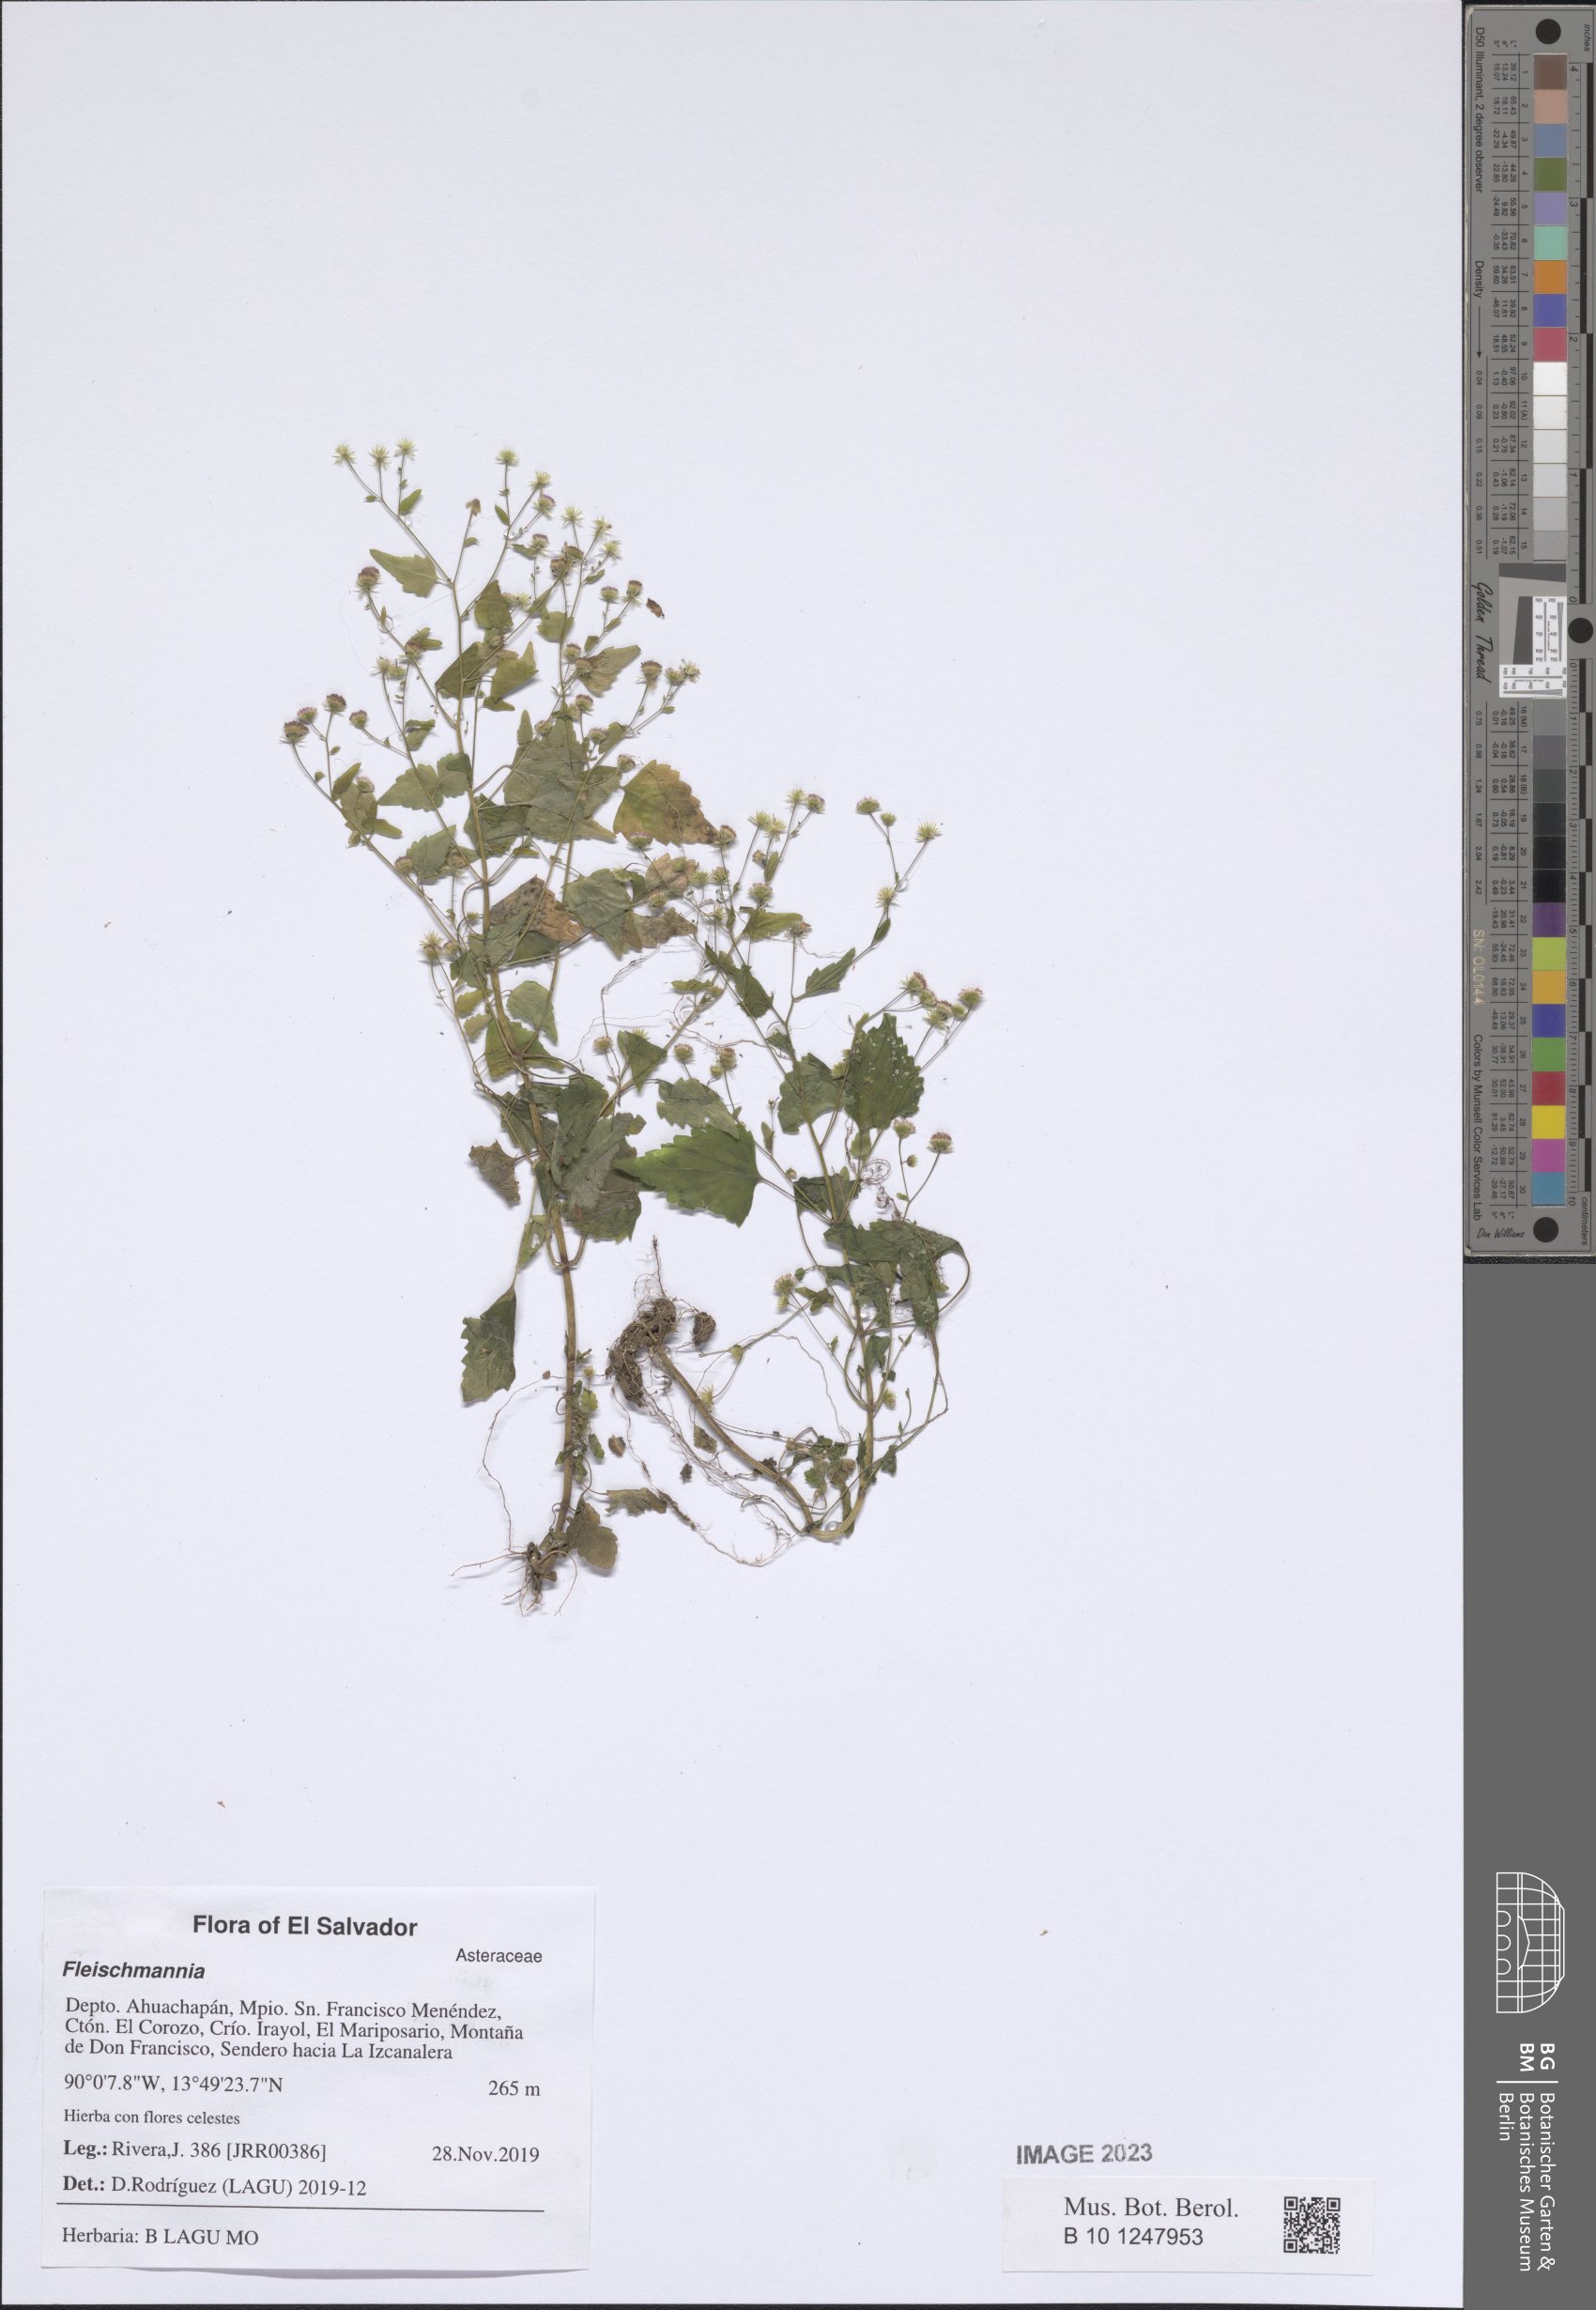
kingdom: Plantae
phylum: Tracheophyta
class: Magnoliopsida
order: Asterales
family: Asteraceae
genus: Fleischmannia
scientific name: Fleischmannia
